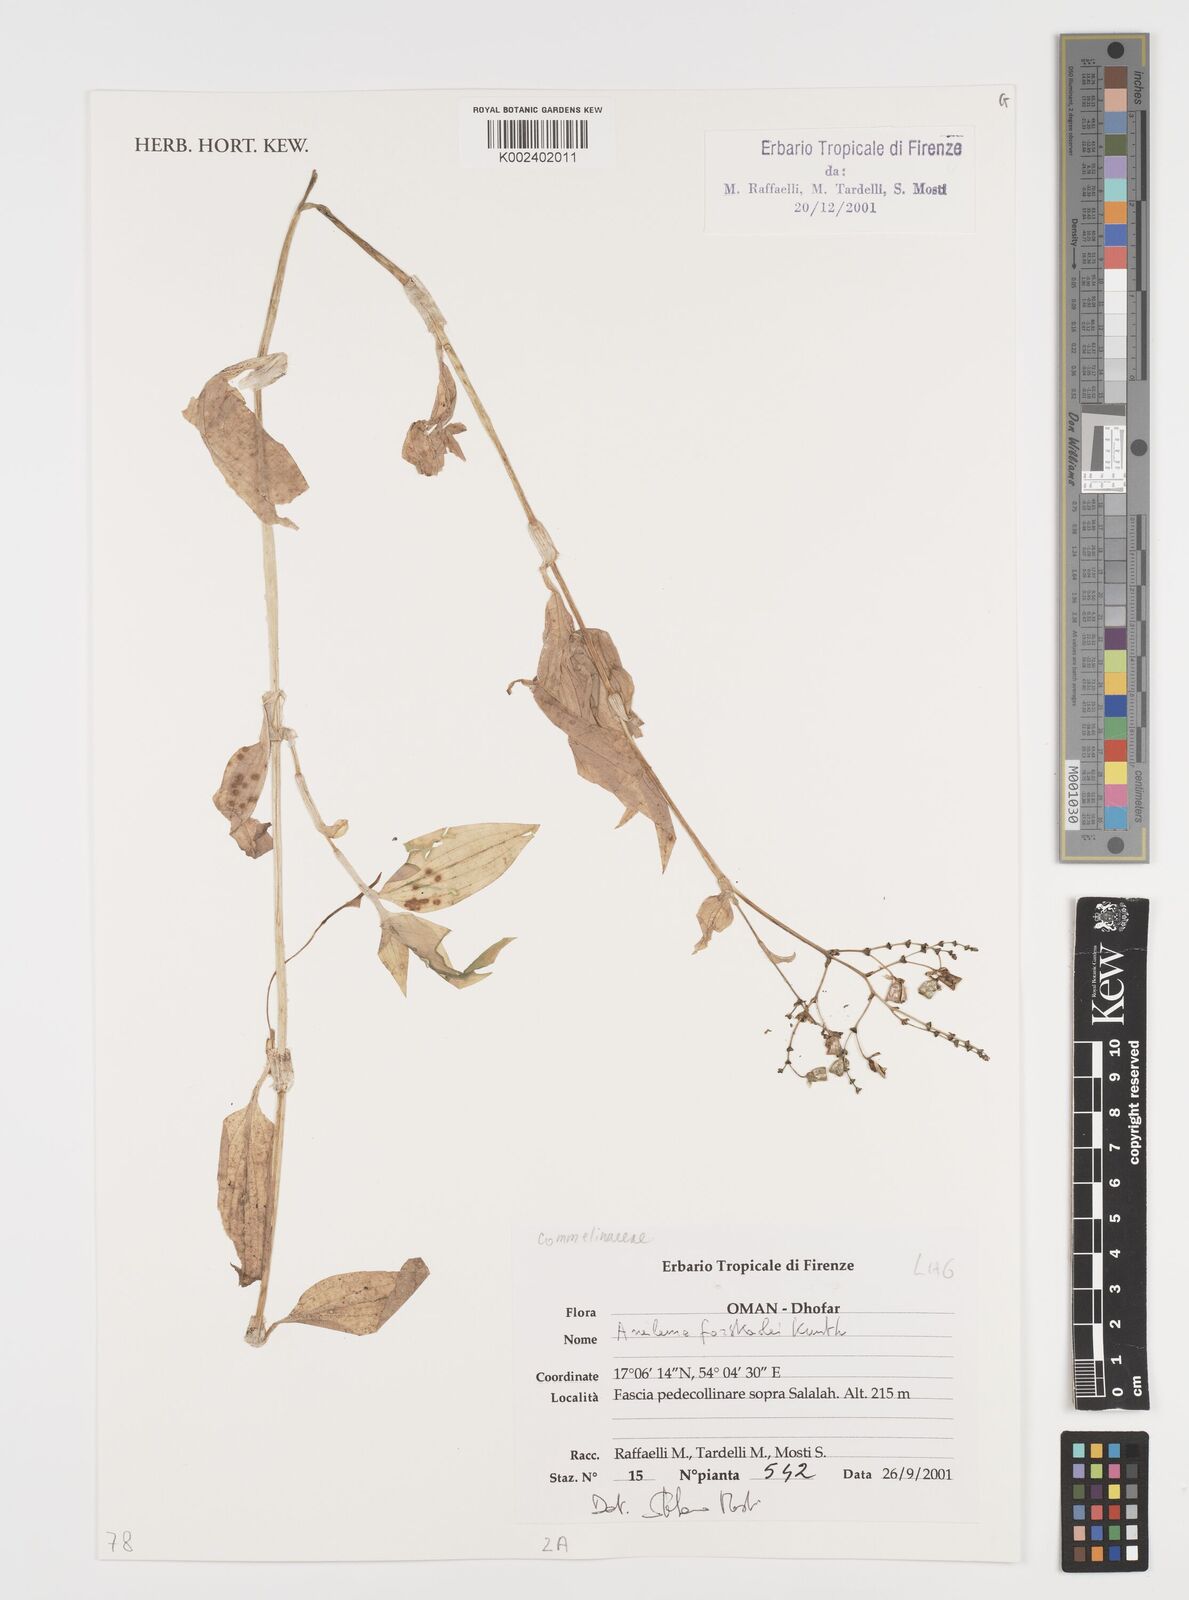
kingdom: Plantae
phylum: Tracheophyta
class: Liliopsida
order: Commelinales
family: Commelinaceae
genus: Aneilema
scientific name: Aneilema forskalii
